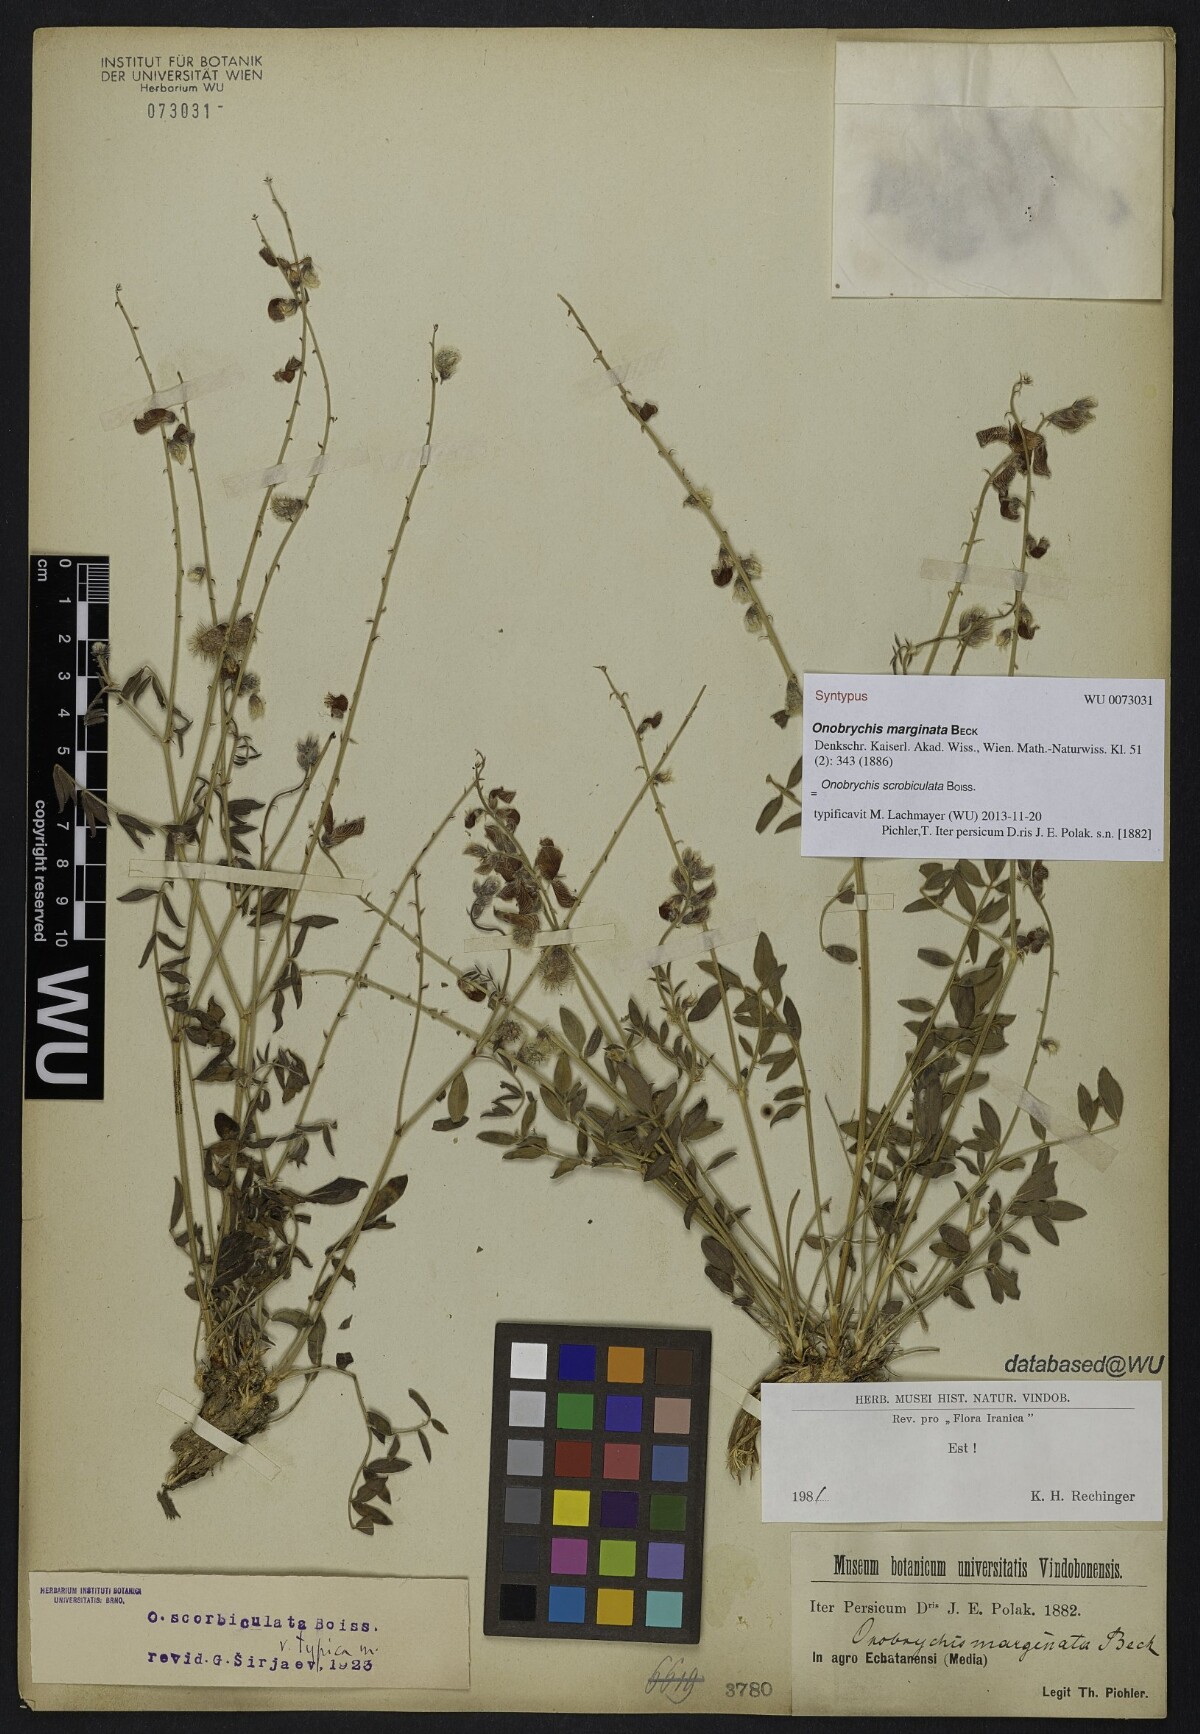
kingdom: Plantae
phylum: Tracheophyta
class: Magnoliopsida
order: Fabales
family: Fabaceae
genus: Onobrychis
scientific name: Onobrychis scrobiculata
